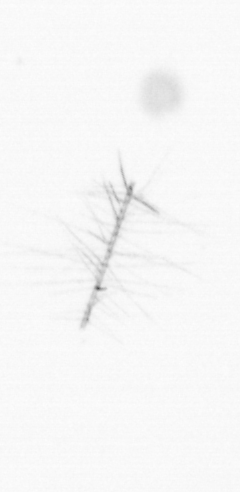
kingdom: Chromista
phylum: Ochrophyta
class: Bacillariophyceae
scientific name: Bacillariophyceae
